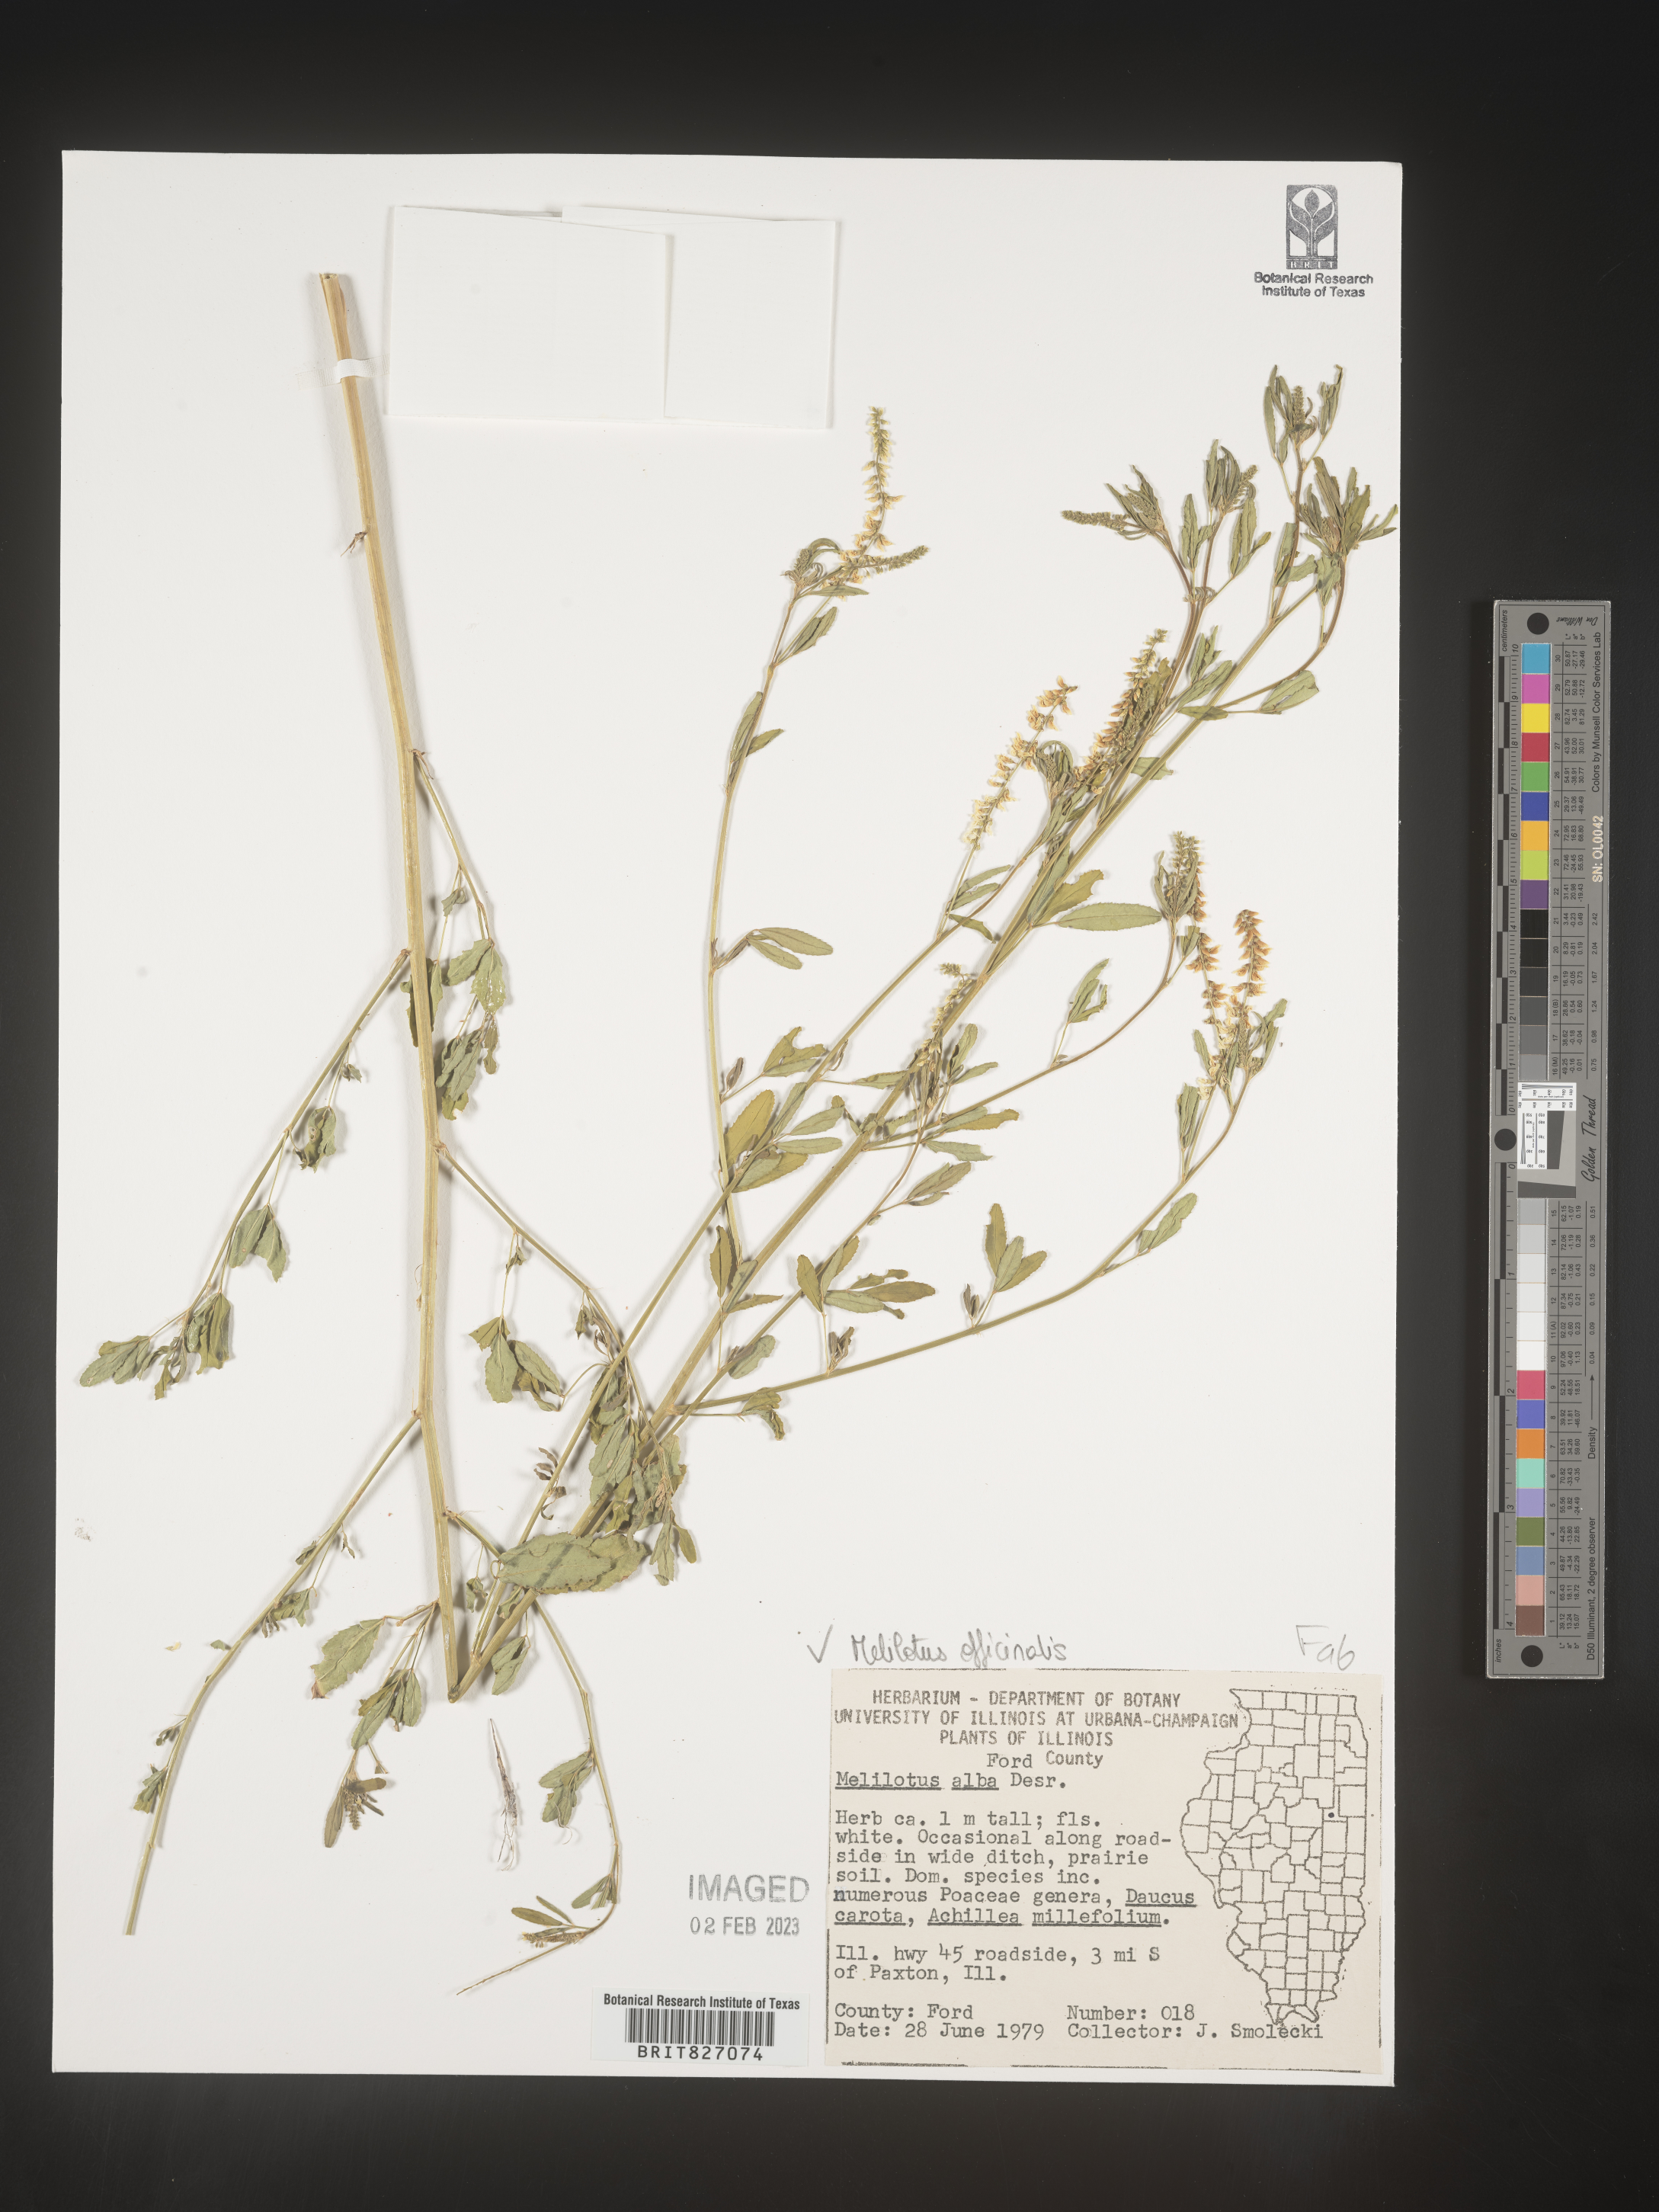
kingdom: Plantae
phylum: Tracheophyta
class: Magnoliopsida
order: Fabales
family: Fabaceae
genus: Melilotus
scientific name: Melilotus officinalis
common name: Sweetclover
